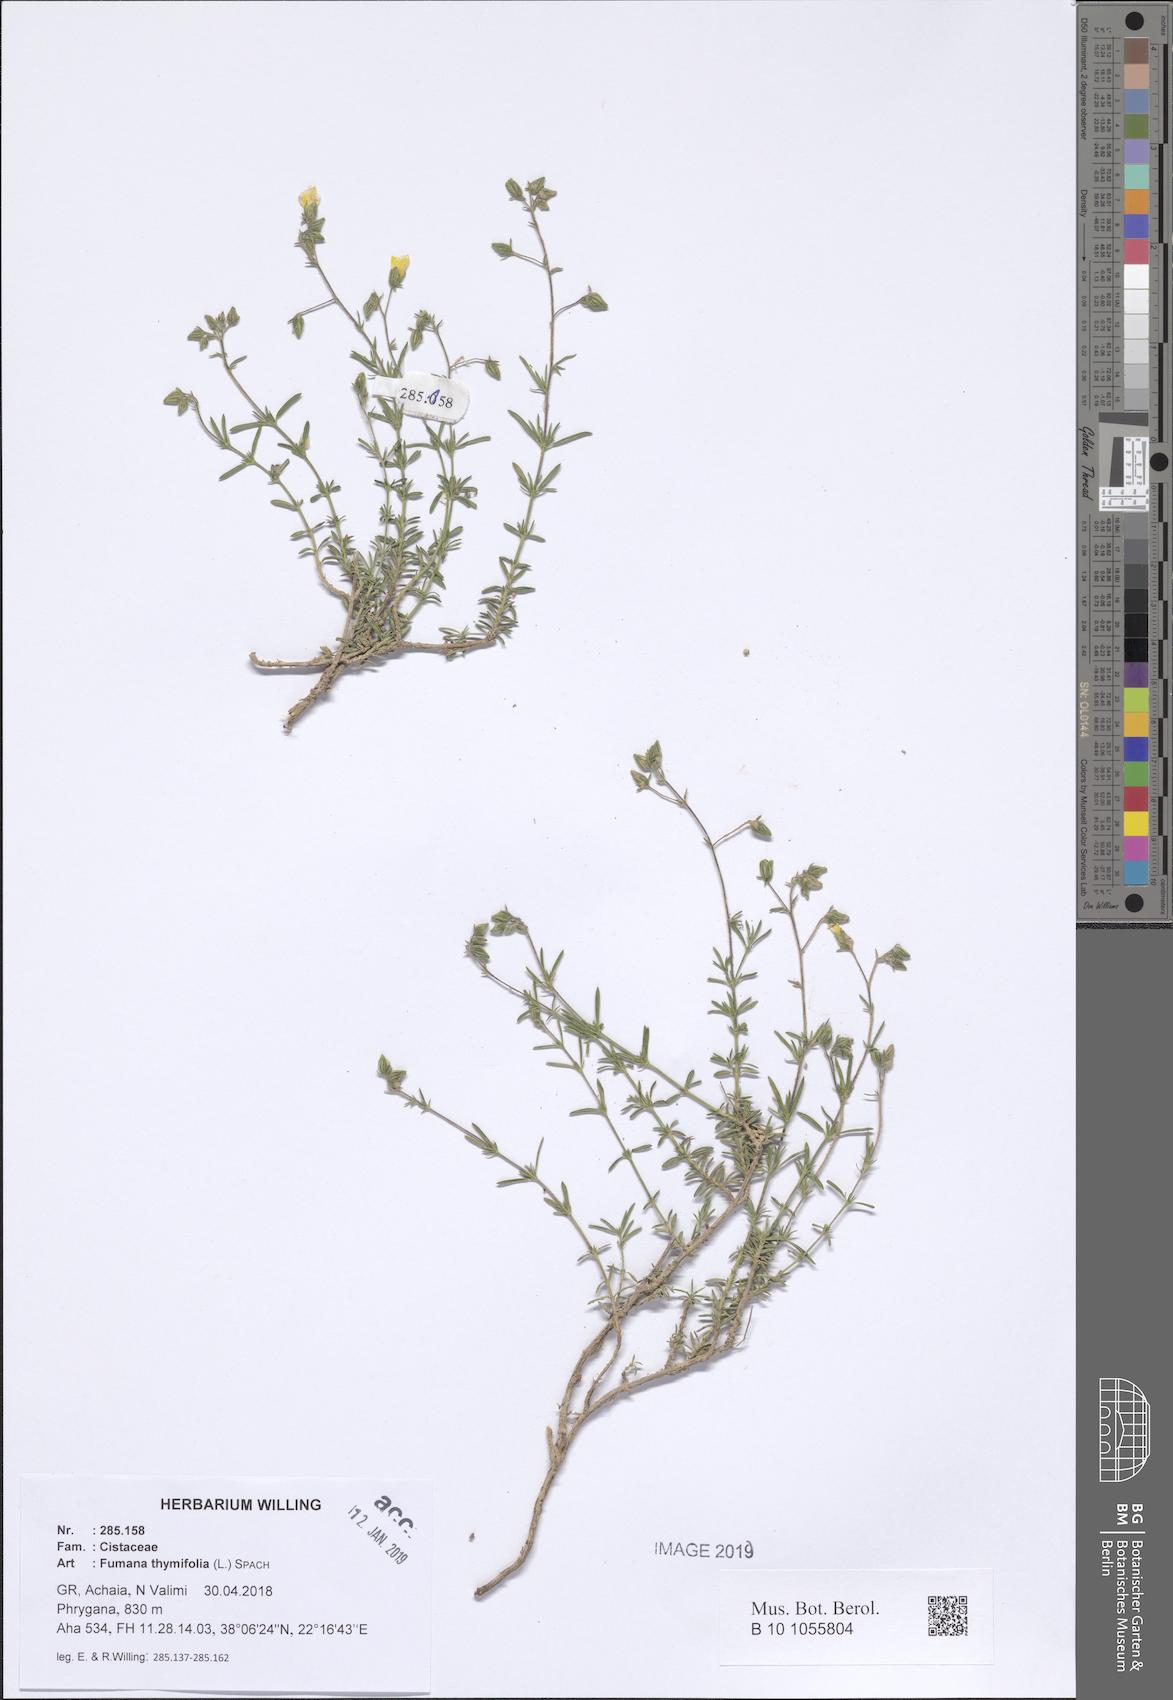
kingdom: Plantae
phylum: Tracheophyta
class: Magnoliopsida
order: Malvales
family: Cistaceae
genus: Fumana
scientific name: Fumana thymifolia
